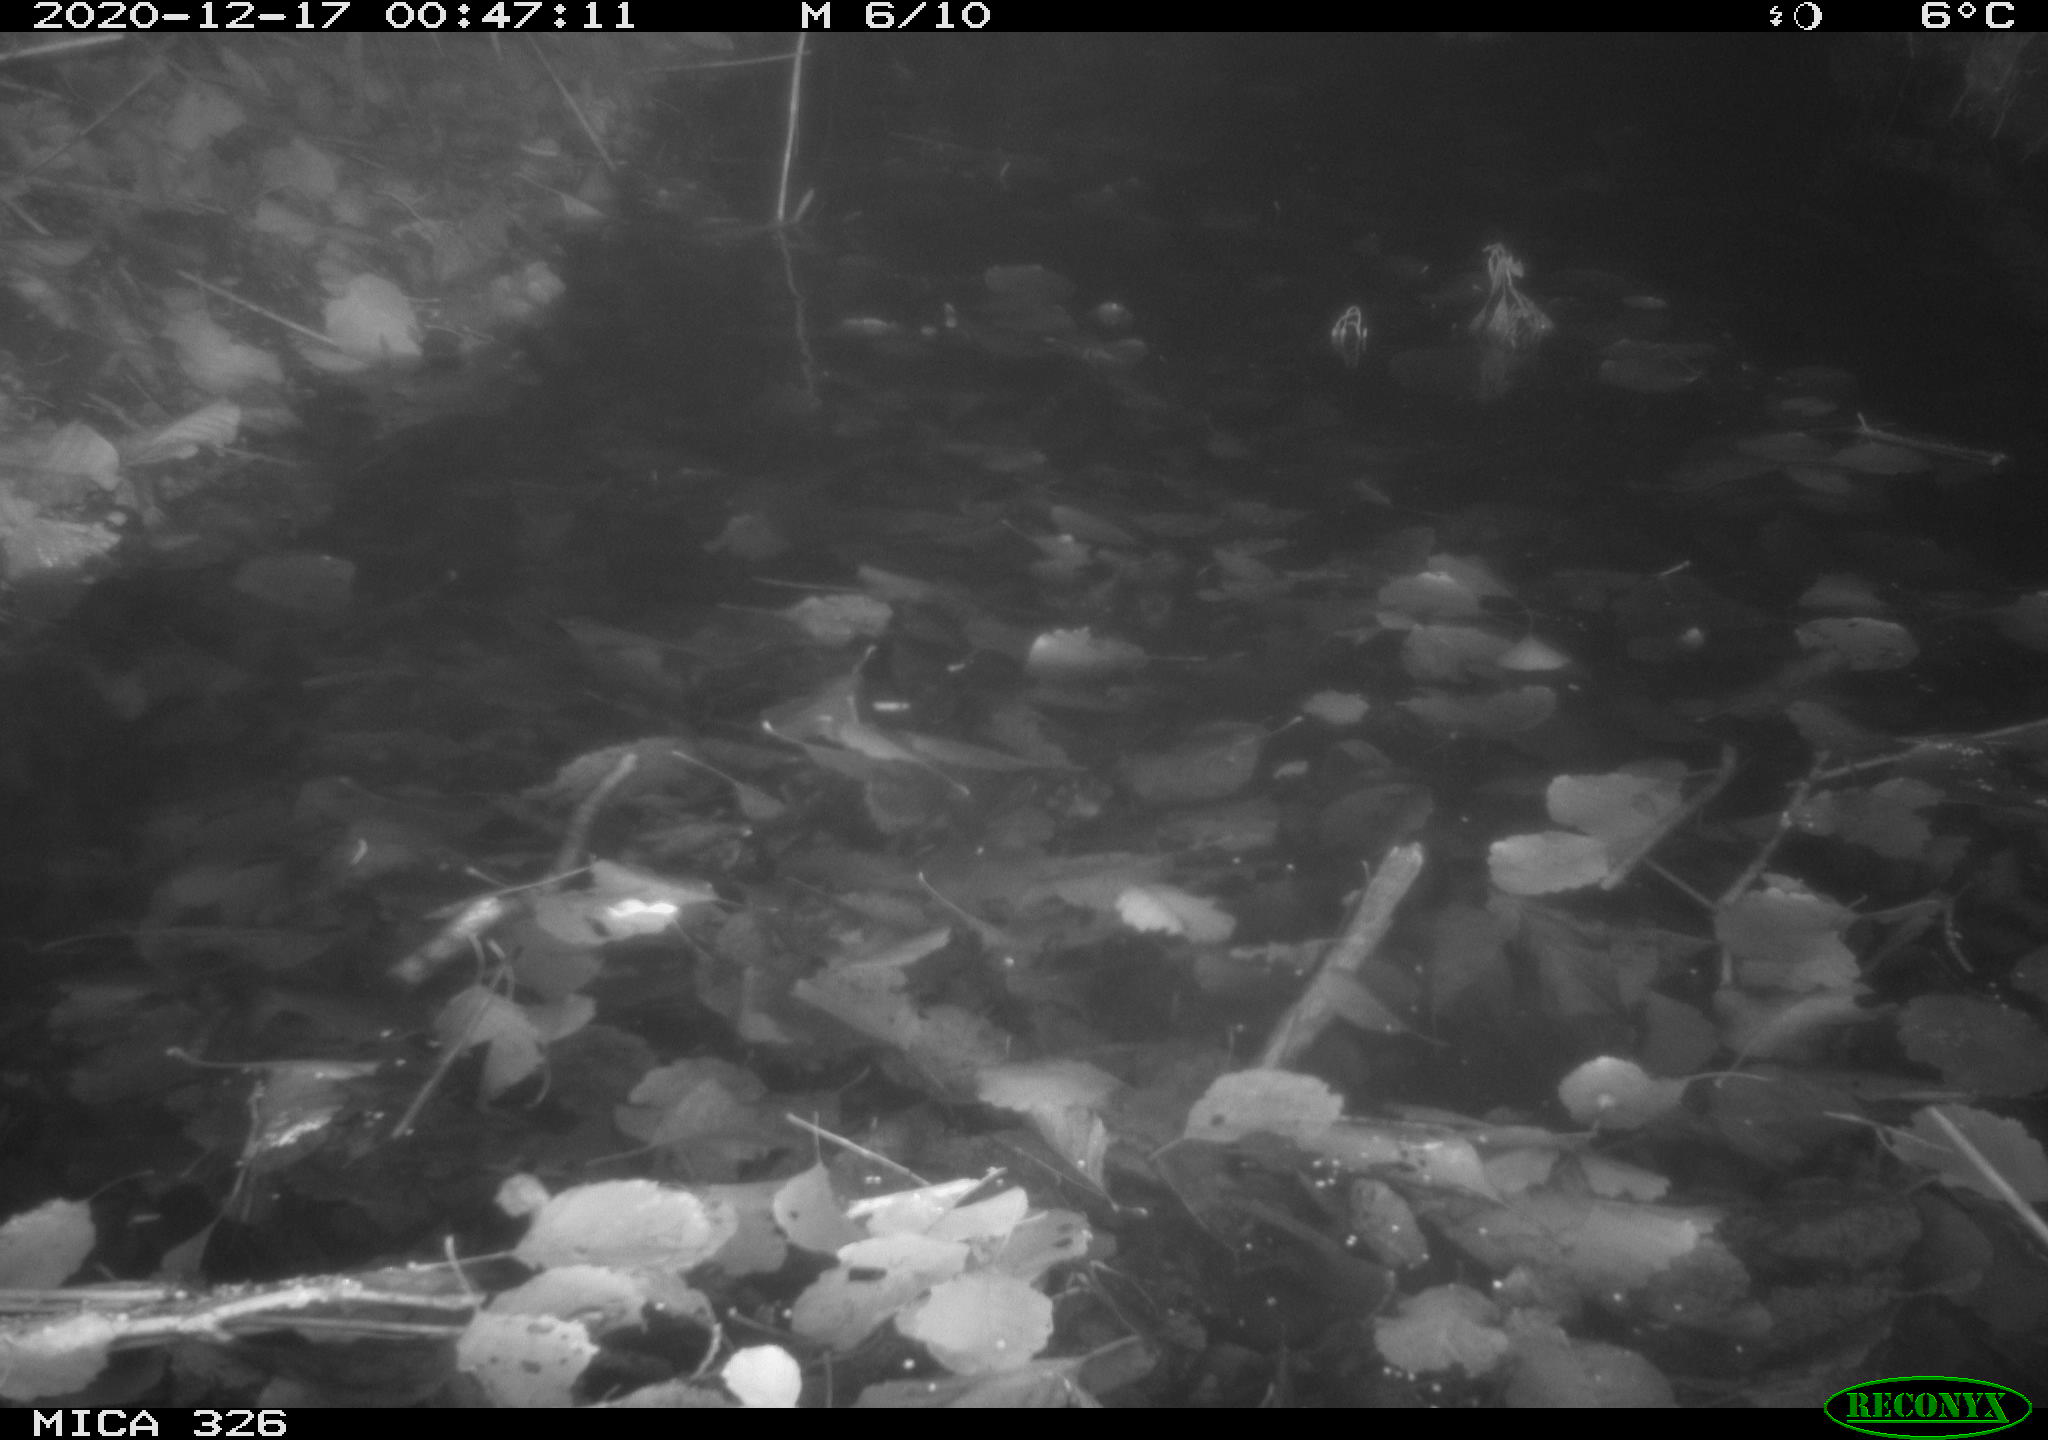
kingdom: Animalia
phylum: Chordata
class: Mammalia
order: Rodentia
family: Cricetidae
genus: Ondatra
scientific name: Ondatra zibethicus
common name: Muskrat
